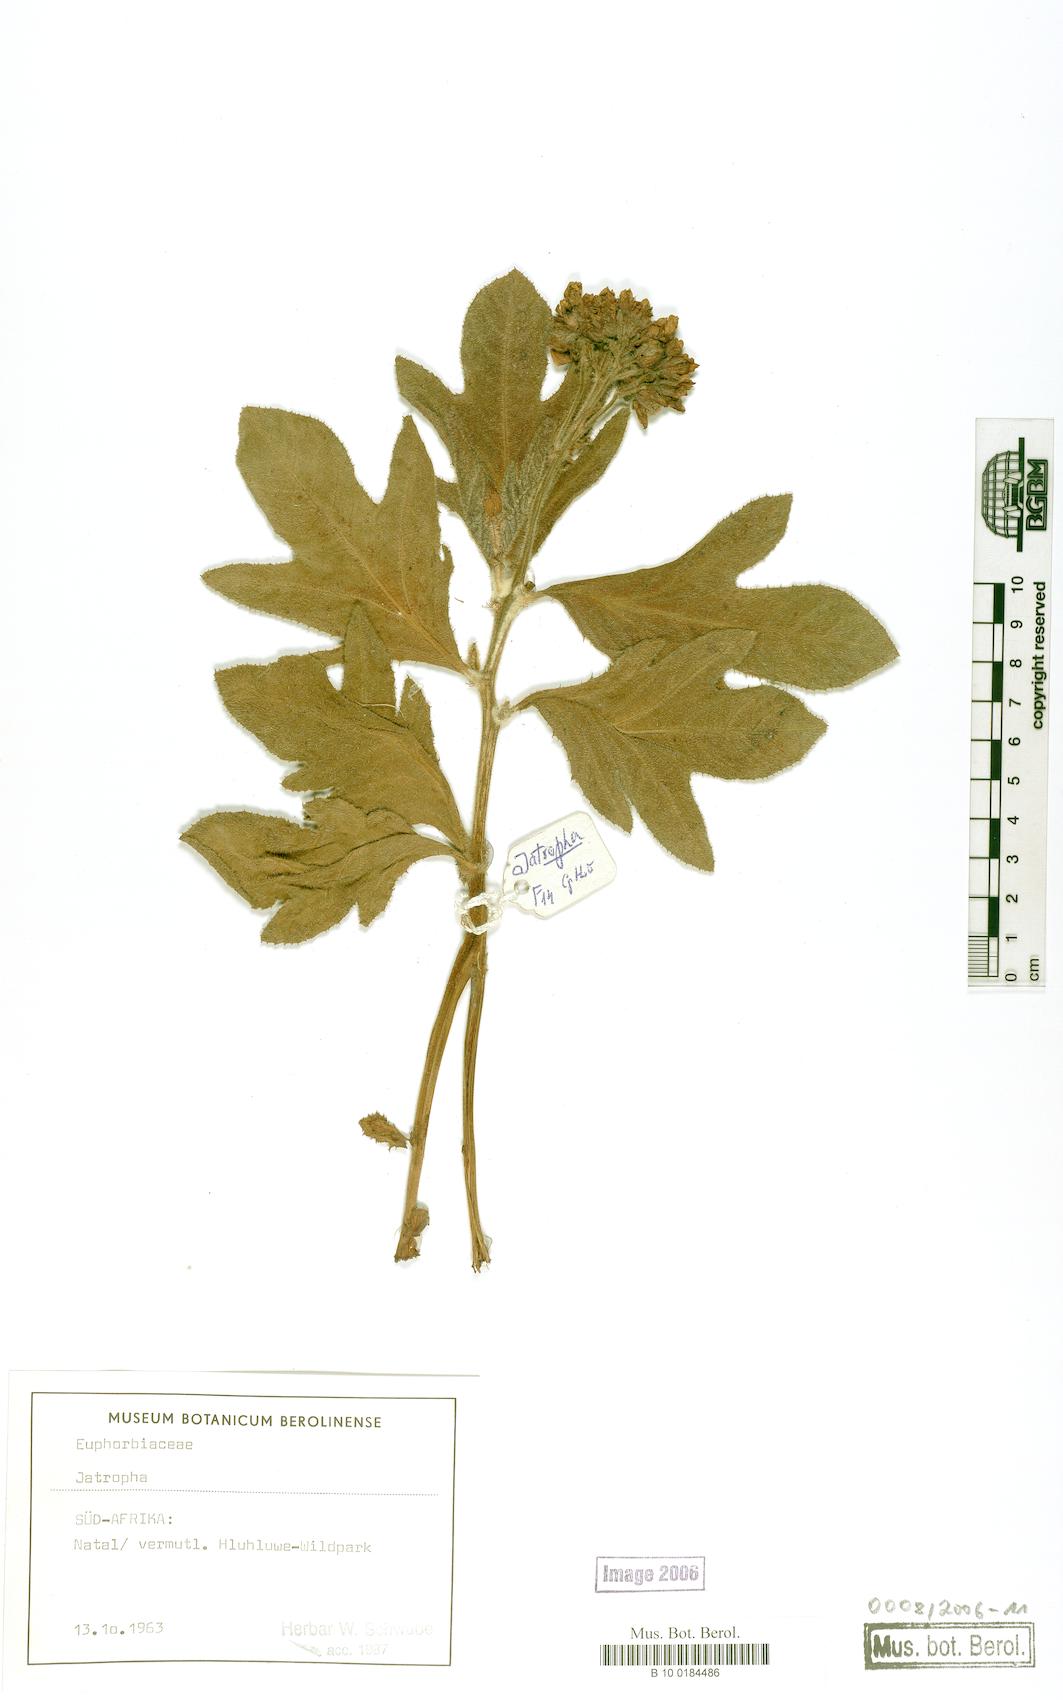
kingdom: Plantae
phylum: Tracheophyta
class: Magnoliopsida
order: Malpighiales
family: Euphorbiaceae
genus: Jatropha
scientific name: Jatropha zeyheri
